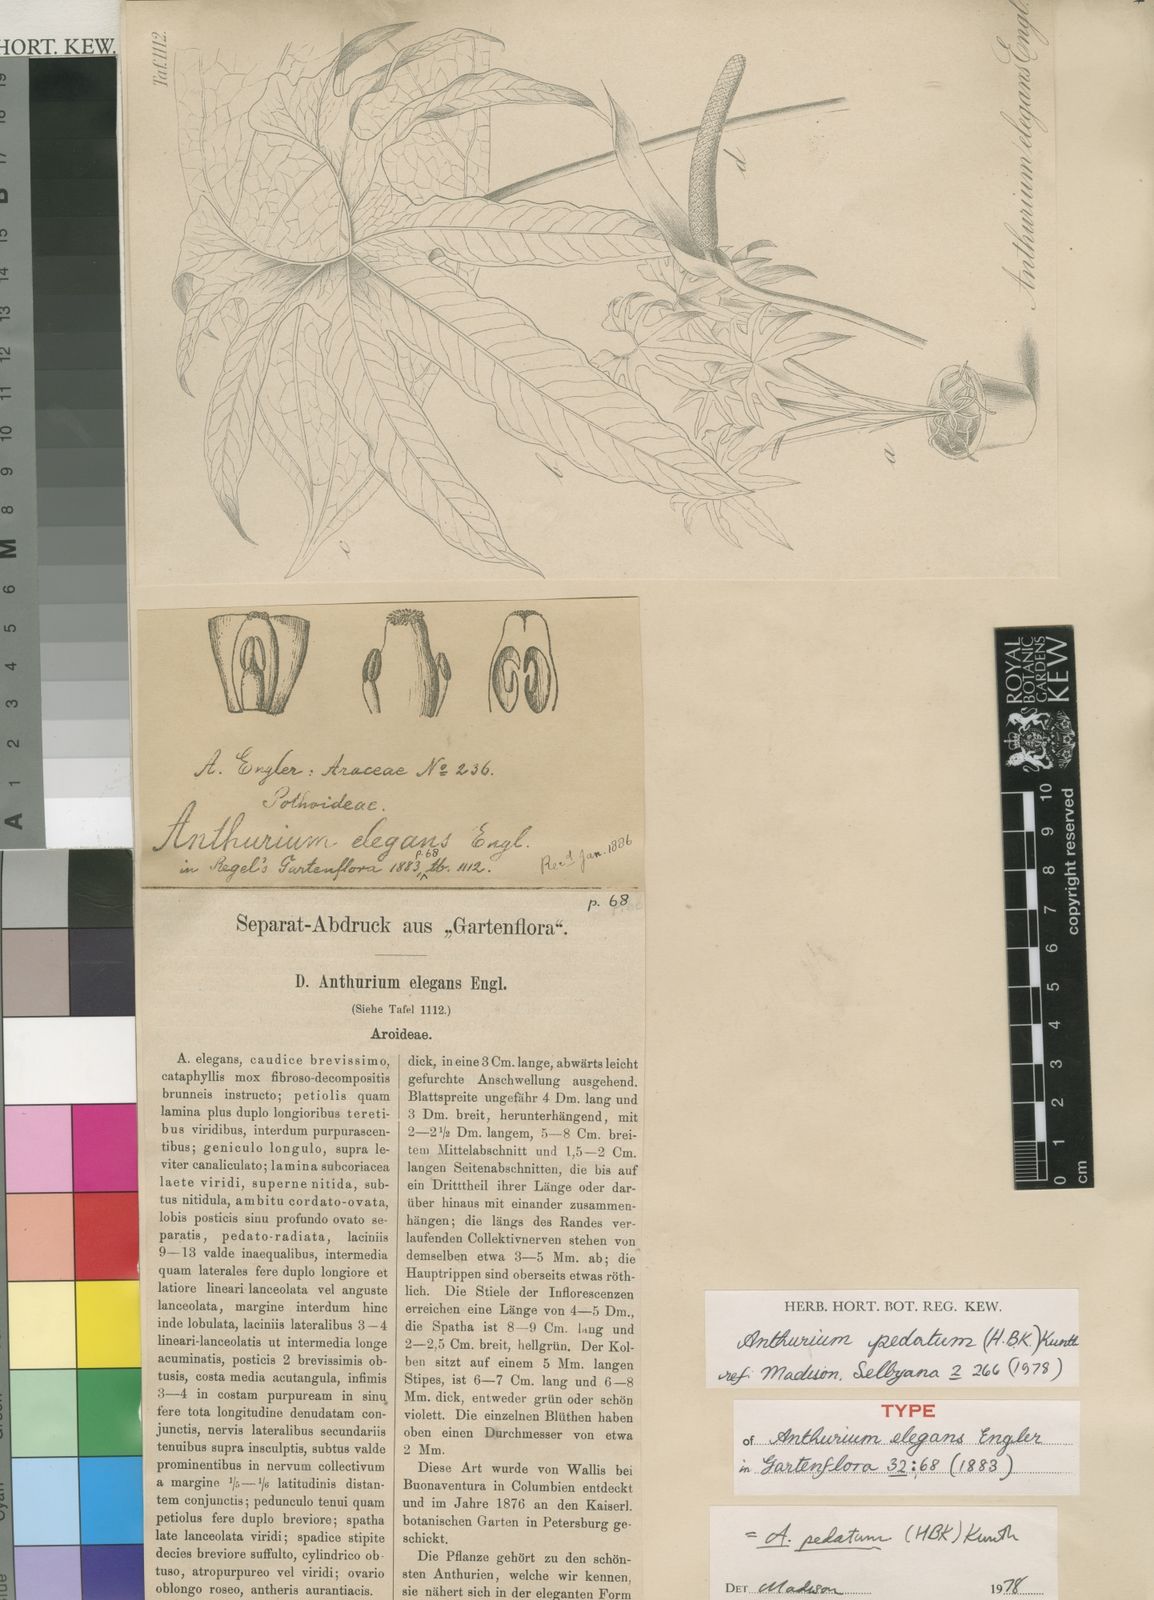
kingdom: Plantae
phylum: Tracheophyta
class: Liliopsida
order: Alismatales
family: Araceae
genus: Anthurium
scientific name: Anthurium
